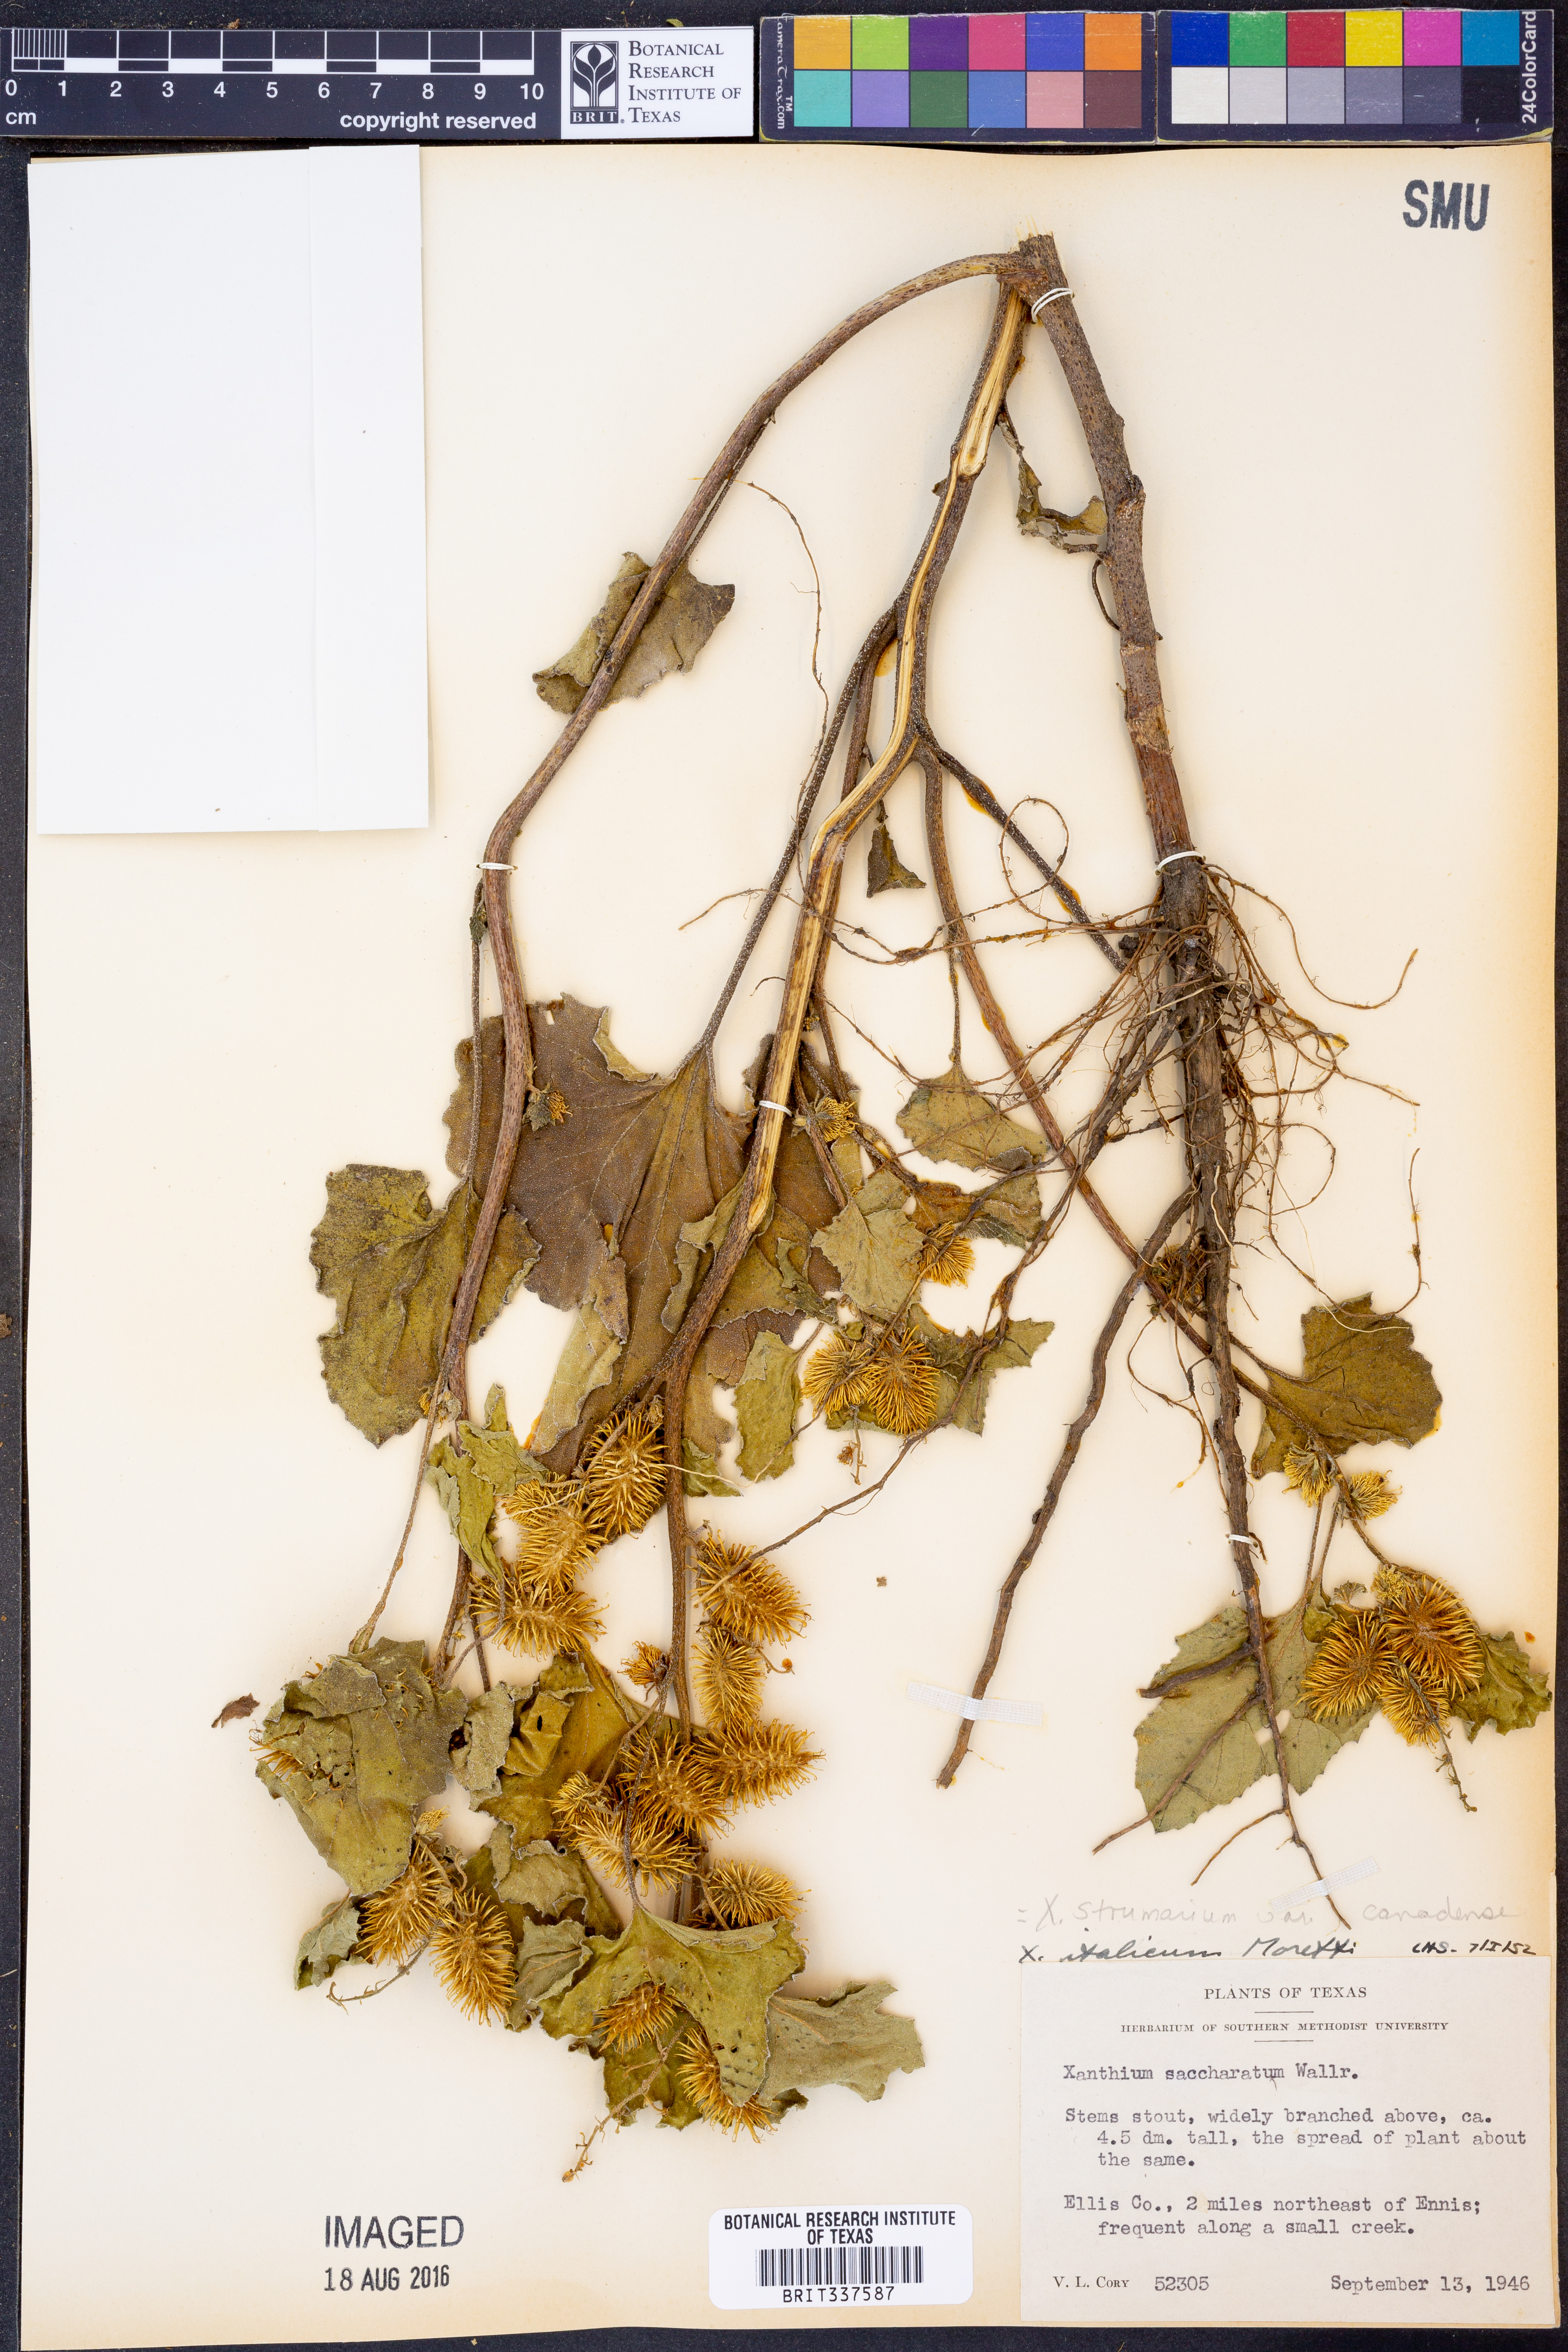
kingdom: Plantae
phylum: Tracheophyta
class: Magnoliopsida
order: Asterales
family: Asteraceae
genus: Xanthium
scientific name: Xanthium orientale
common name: Californian burr
